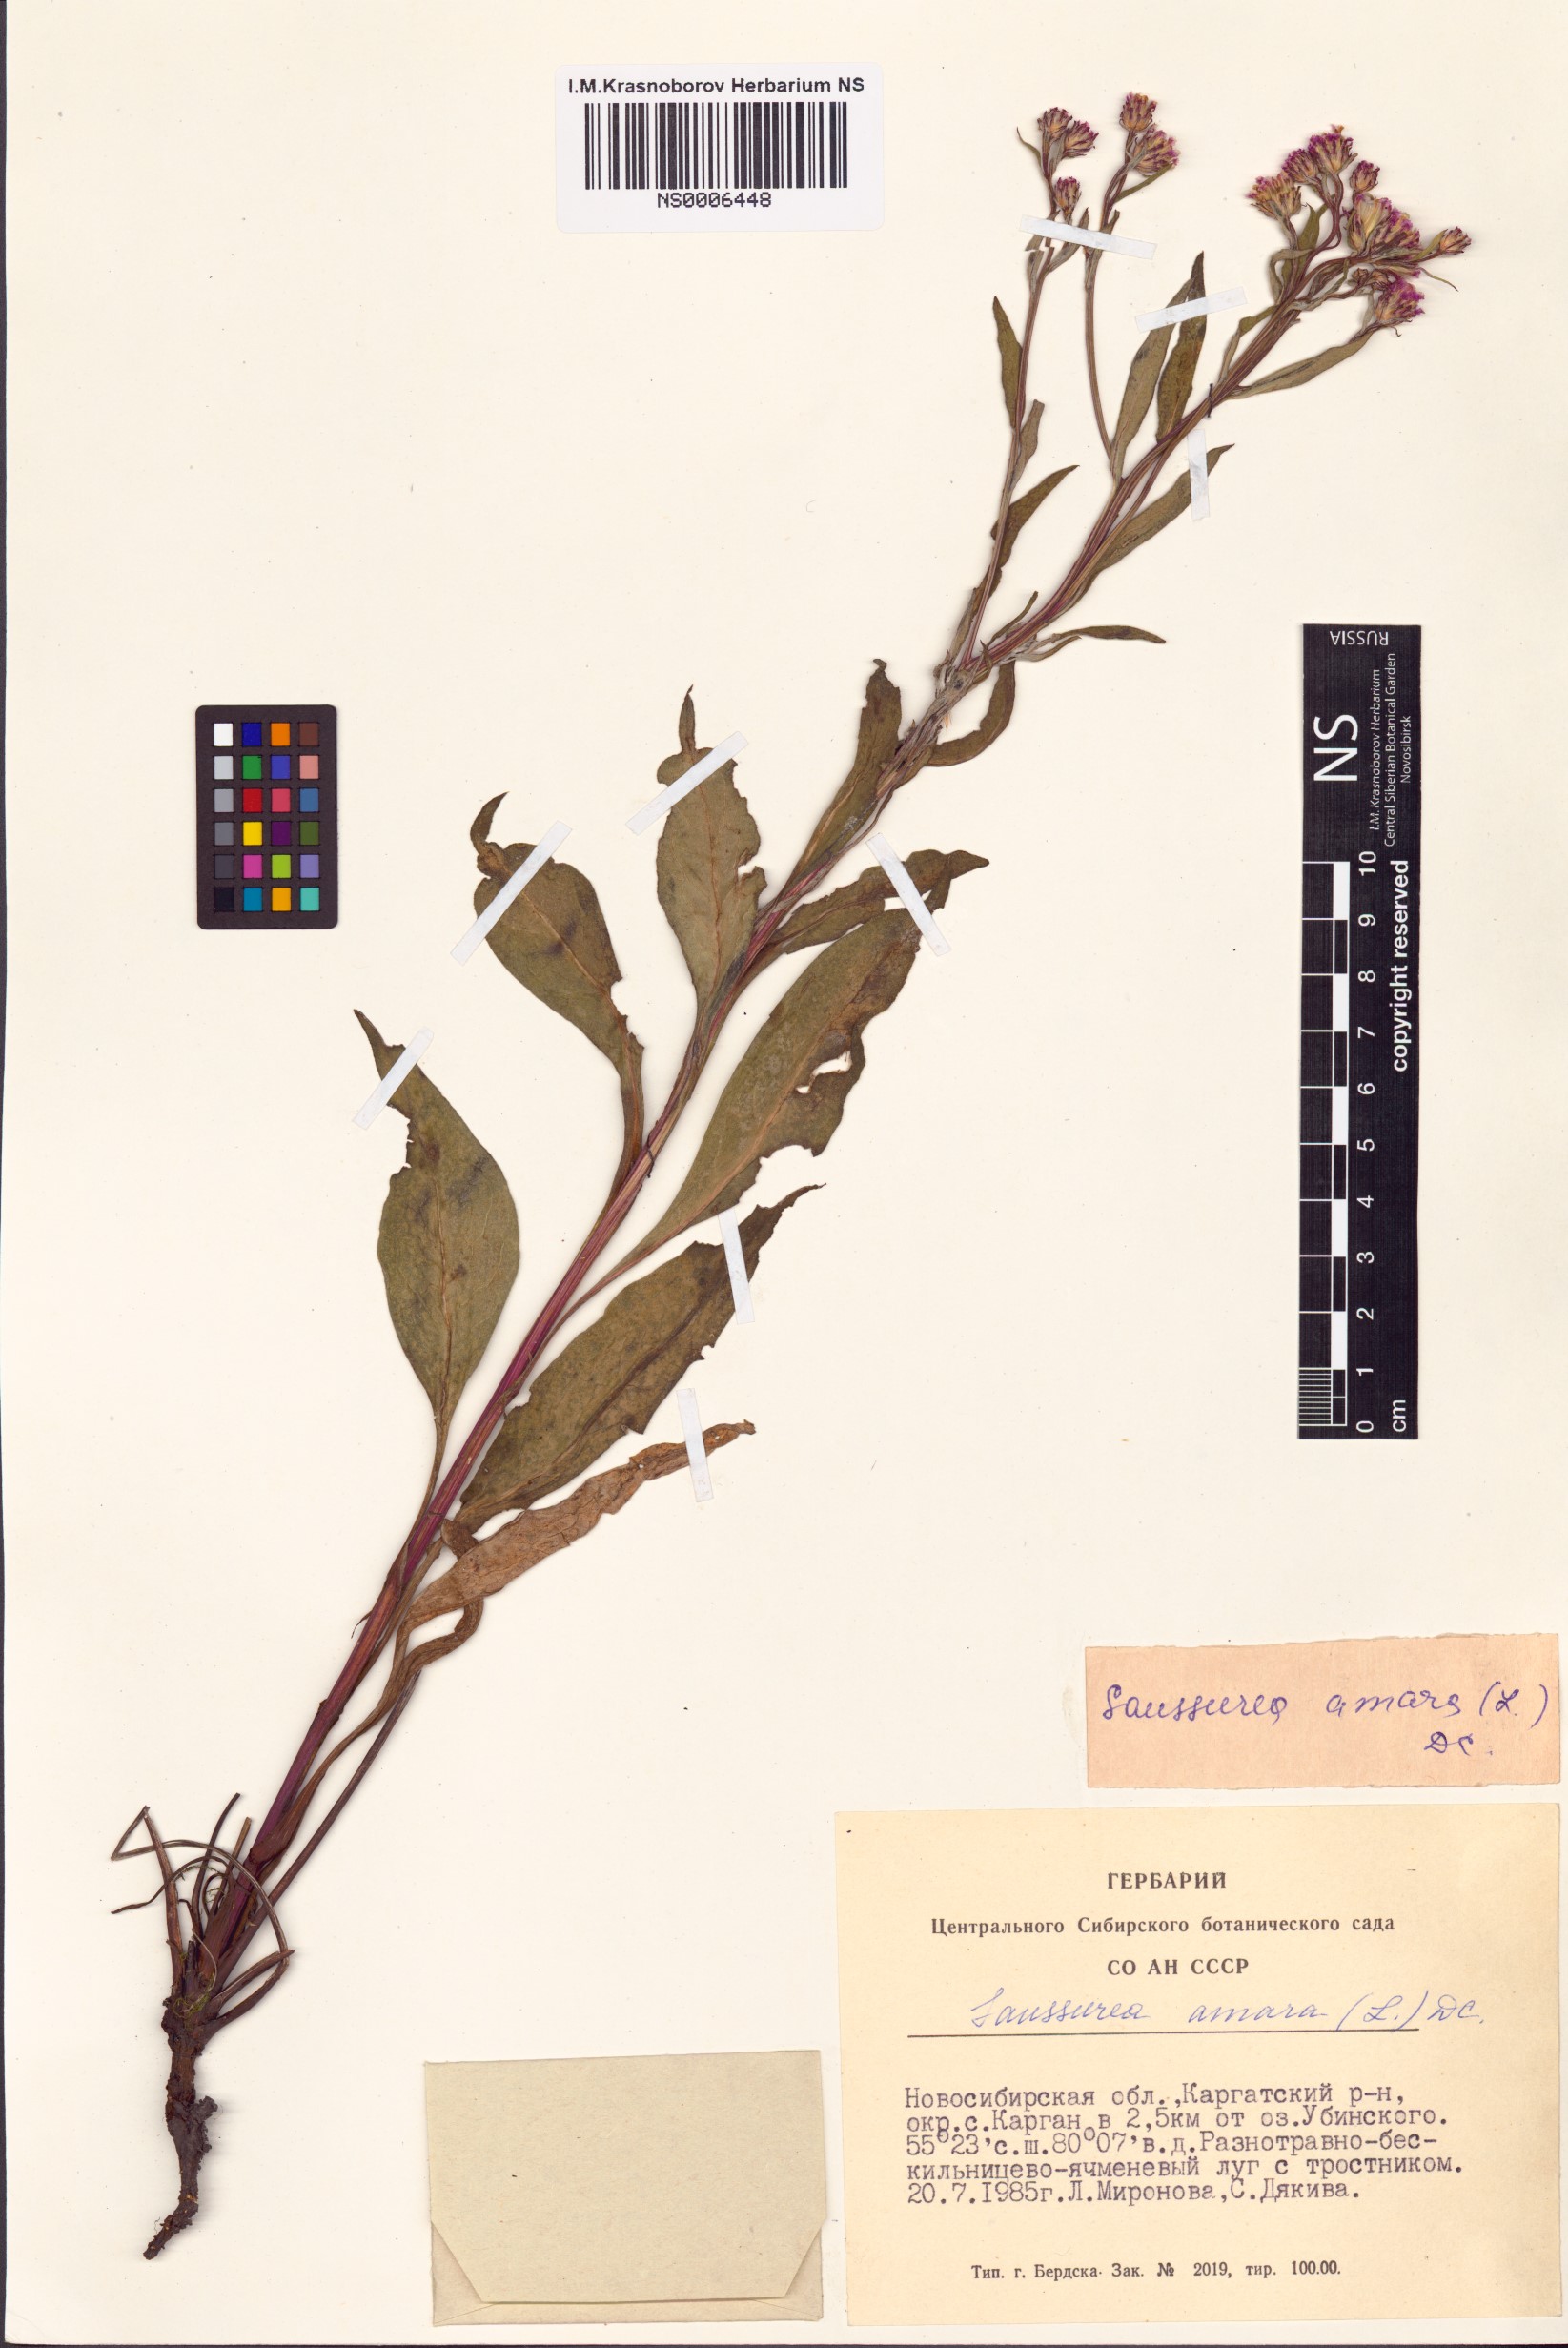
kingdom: Plantae
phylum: Tracheophyta
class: Magnoliopsida
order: Asterales
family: Asteraceae
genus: Saussurea
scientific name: Saussurea amara
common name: Alberta sawwort
